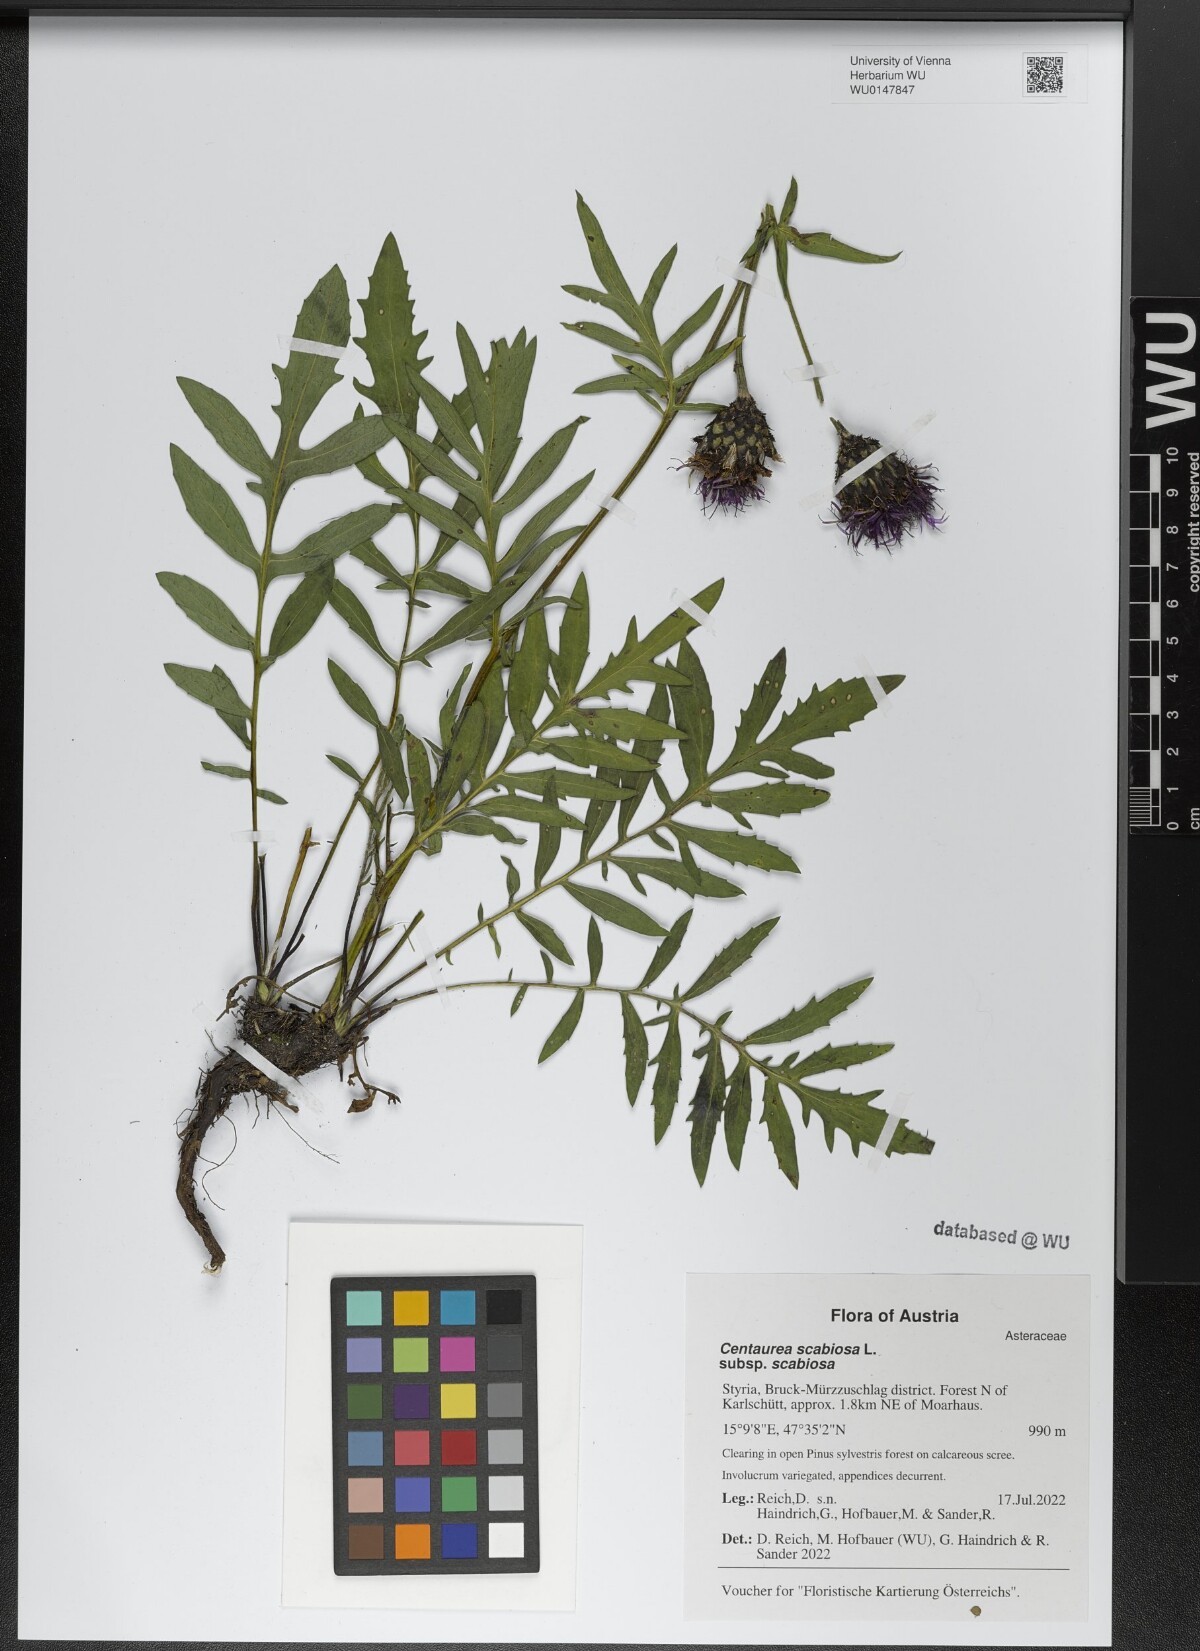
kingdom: Plantae
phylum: Tracheophyta
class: Magnoliopsida
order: Asterales
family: Asteraceae
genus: Centaurea
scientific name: Centaurea scabiosa
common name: Greater knapweed
